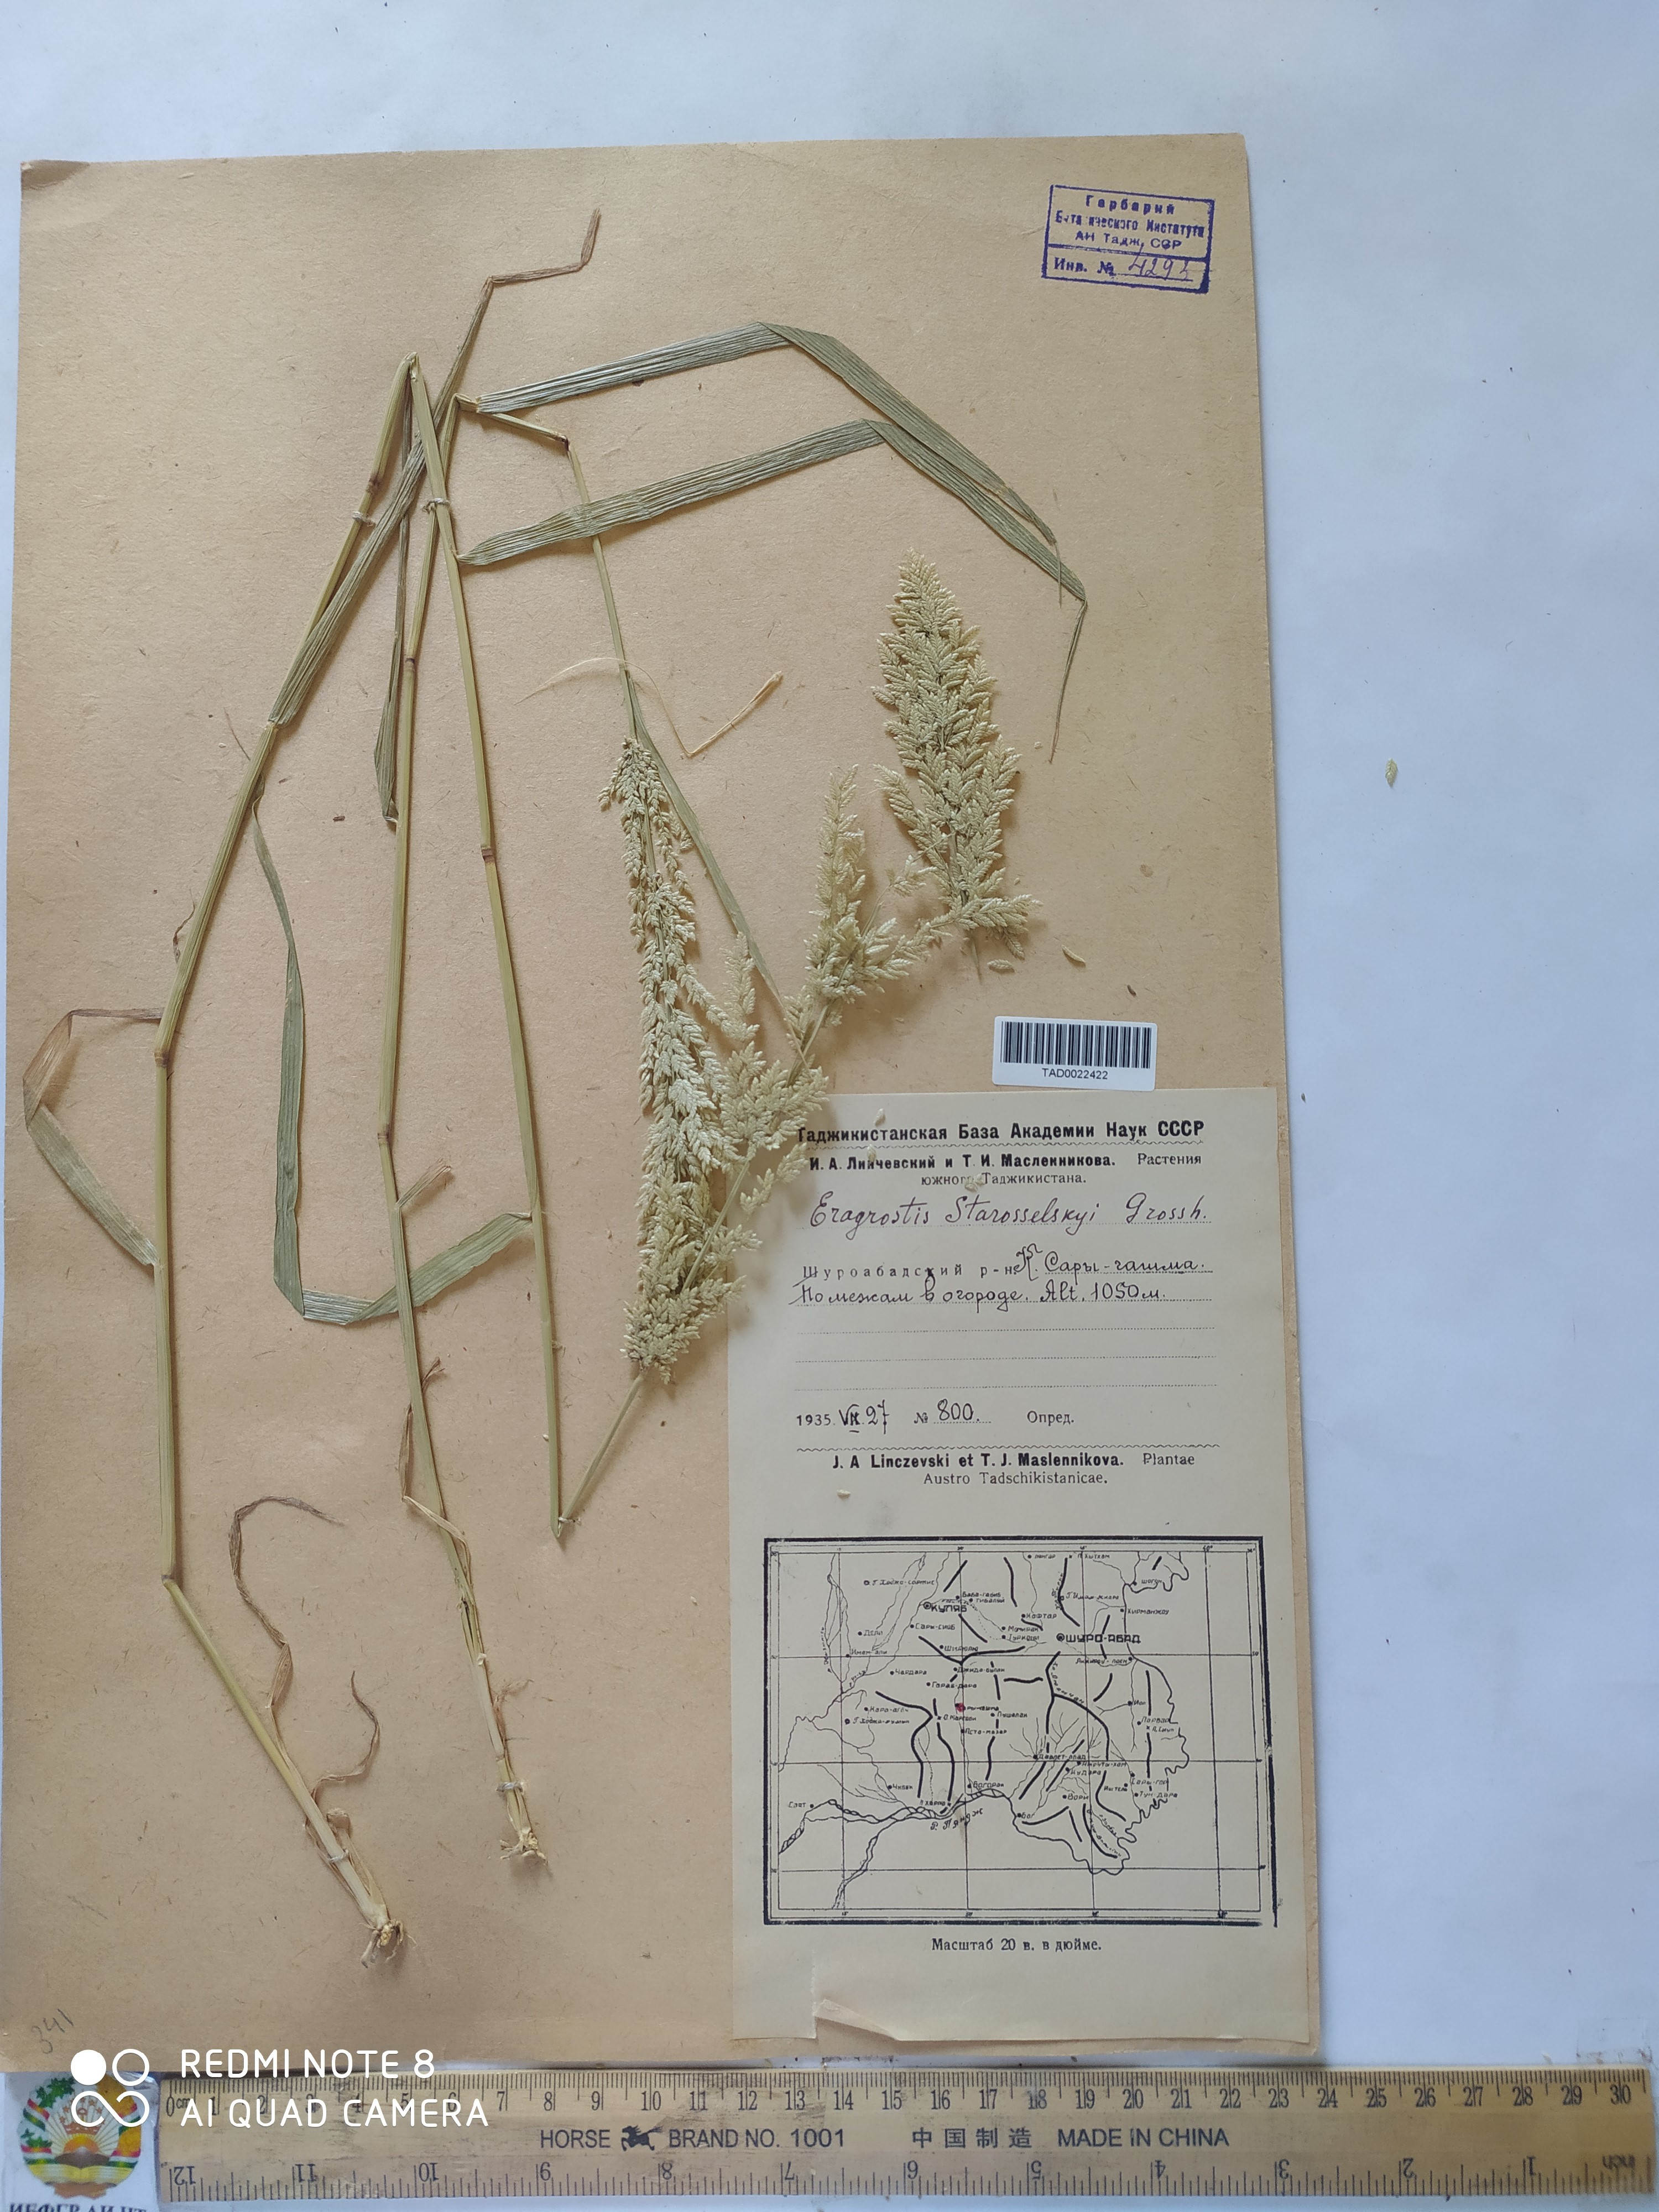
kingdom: Plantae
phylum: Tracheophyta
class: Liliopsida
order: Poales
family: Poaceae
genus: Eragrostis
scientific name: Eragrostis cilianensis
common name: Stinkgrass
